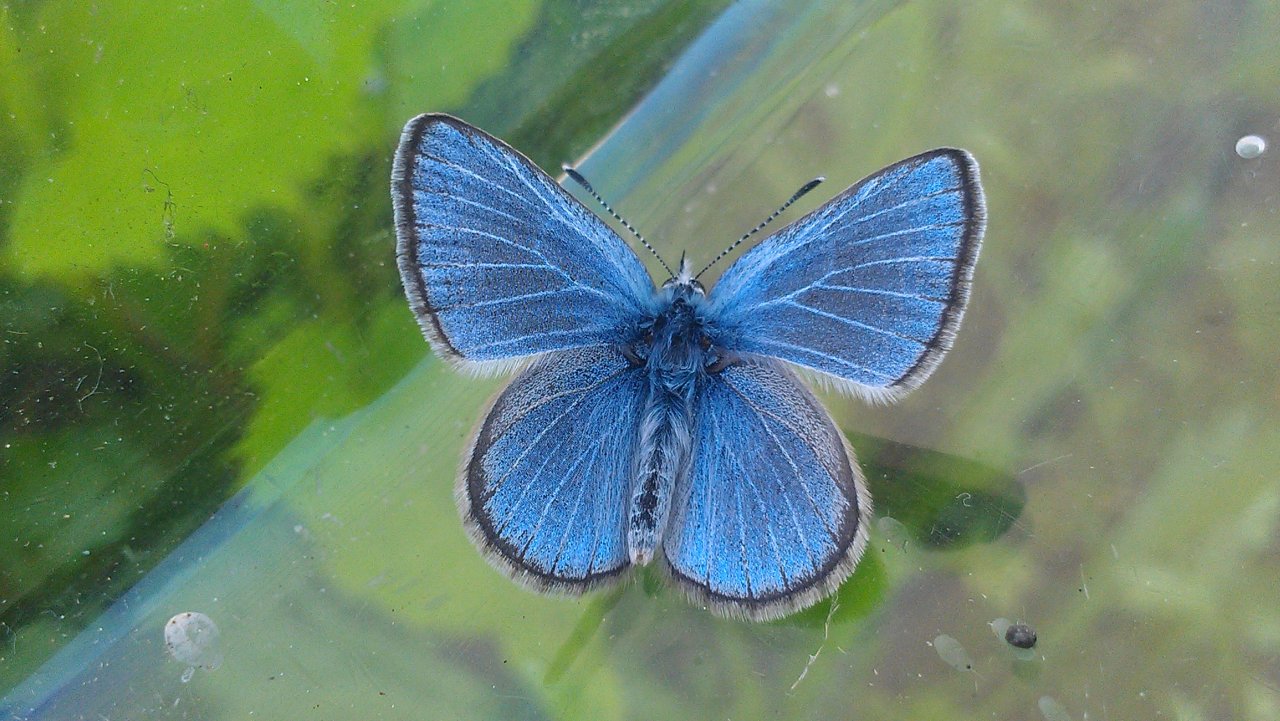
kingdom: Animalia
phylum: Arthropoda
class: Insecta
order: Lepidoptera
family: Lycaenidae
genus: Glaucopsyche
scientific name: Glaucopsyche lygdamus
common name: Silvery Blue
